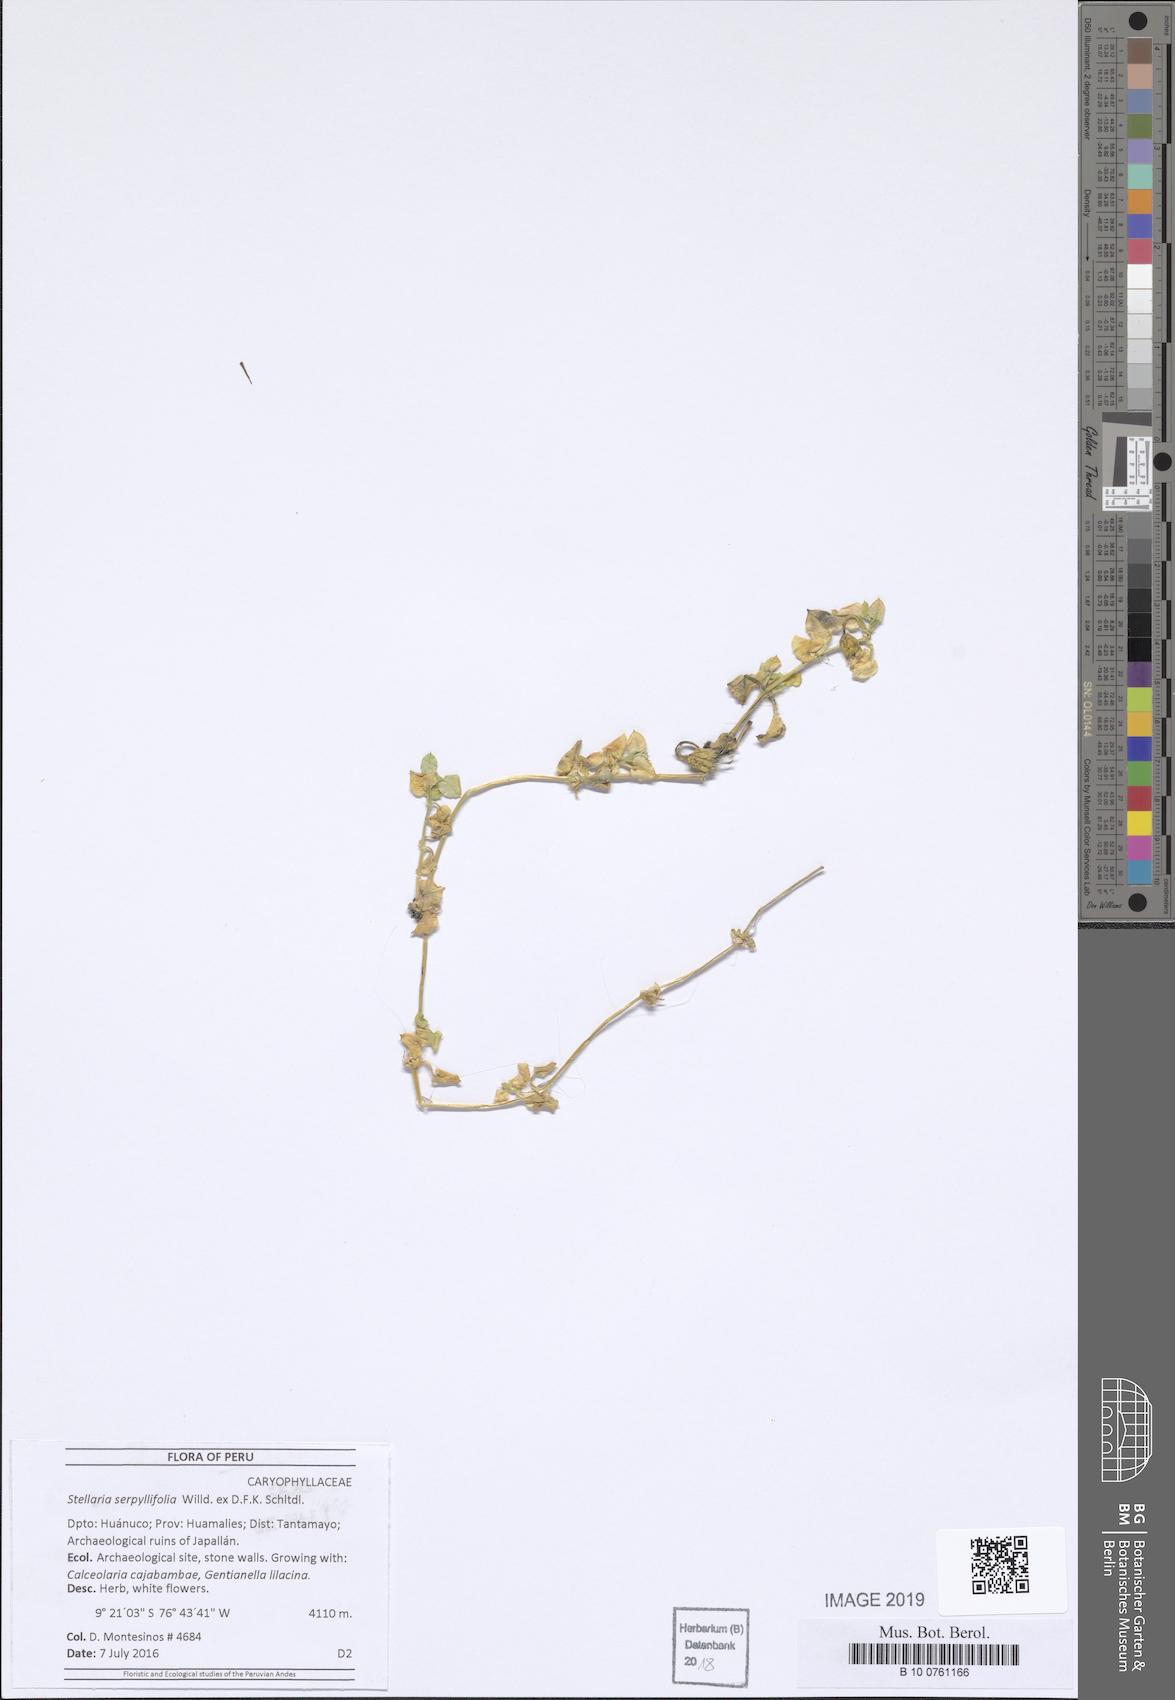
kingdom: Plantae
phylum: Tracheophyta
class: Magnoliopsida
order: Caryophyllales
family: Caryophyllaceae
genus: Stellaria
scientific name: Stellaria recurvata
